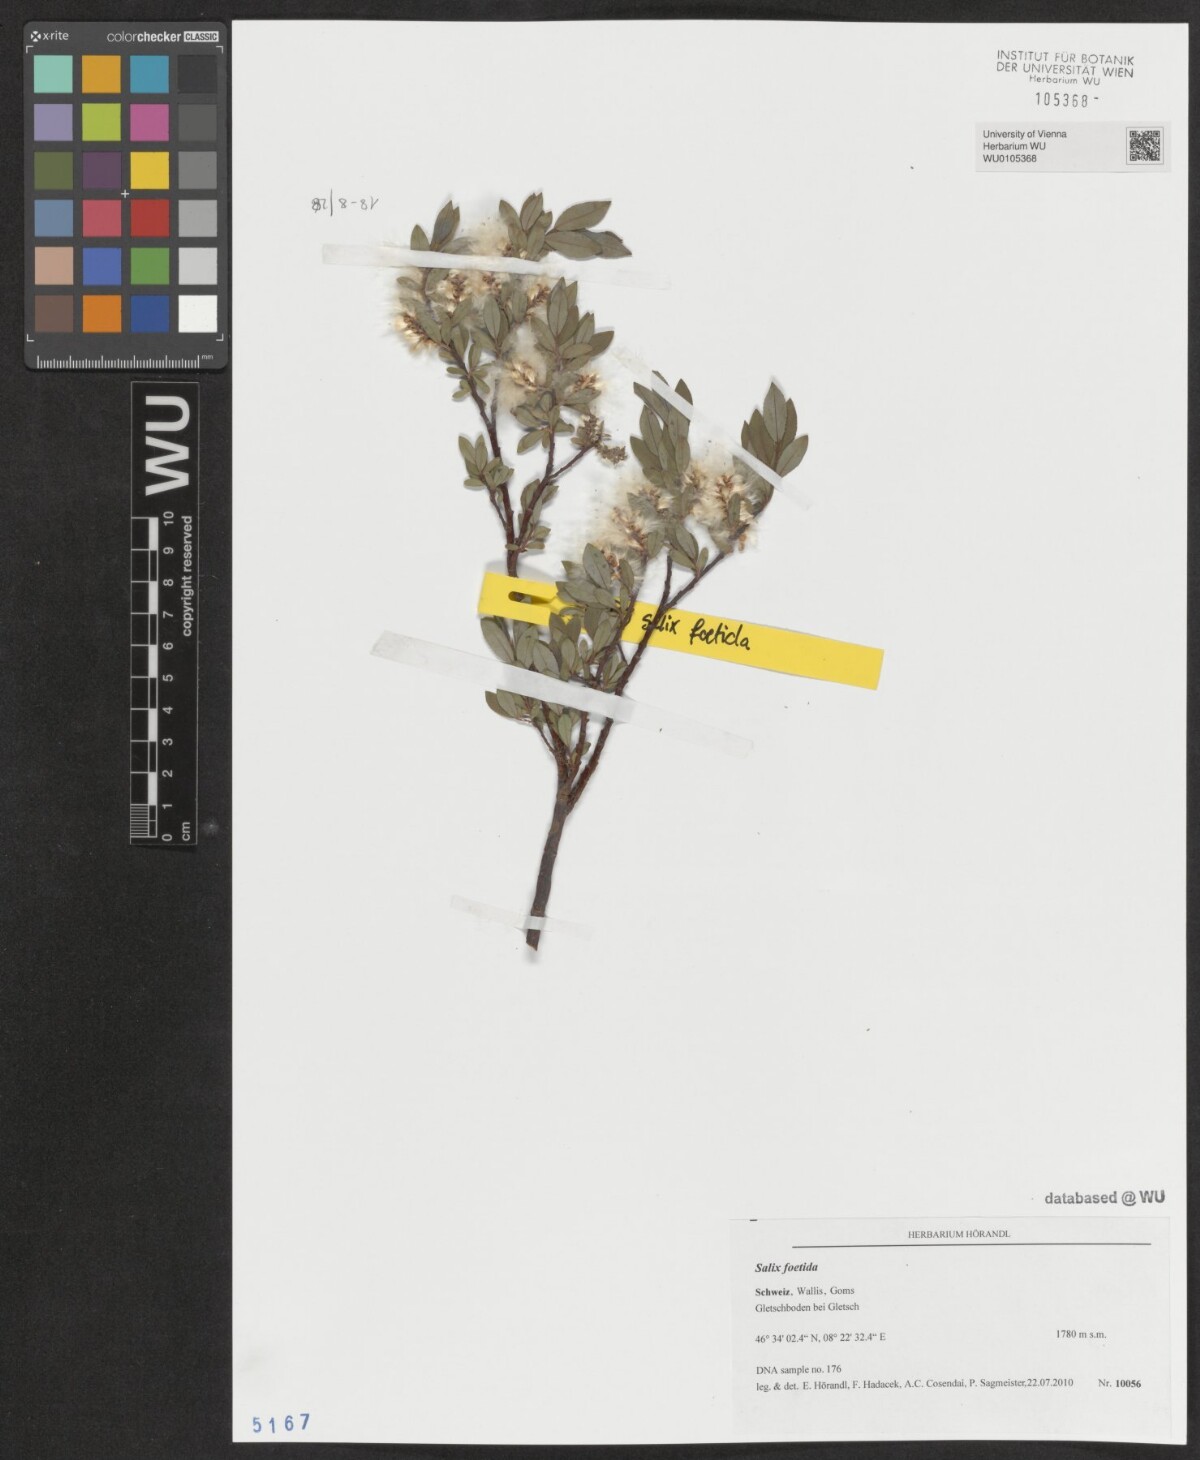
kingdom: Plantae
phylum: Tracheophyta
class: Magnoliopsida
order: Malpighiales
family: Salicaceae
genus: Salix
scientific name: Salix foetida
